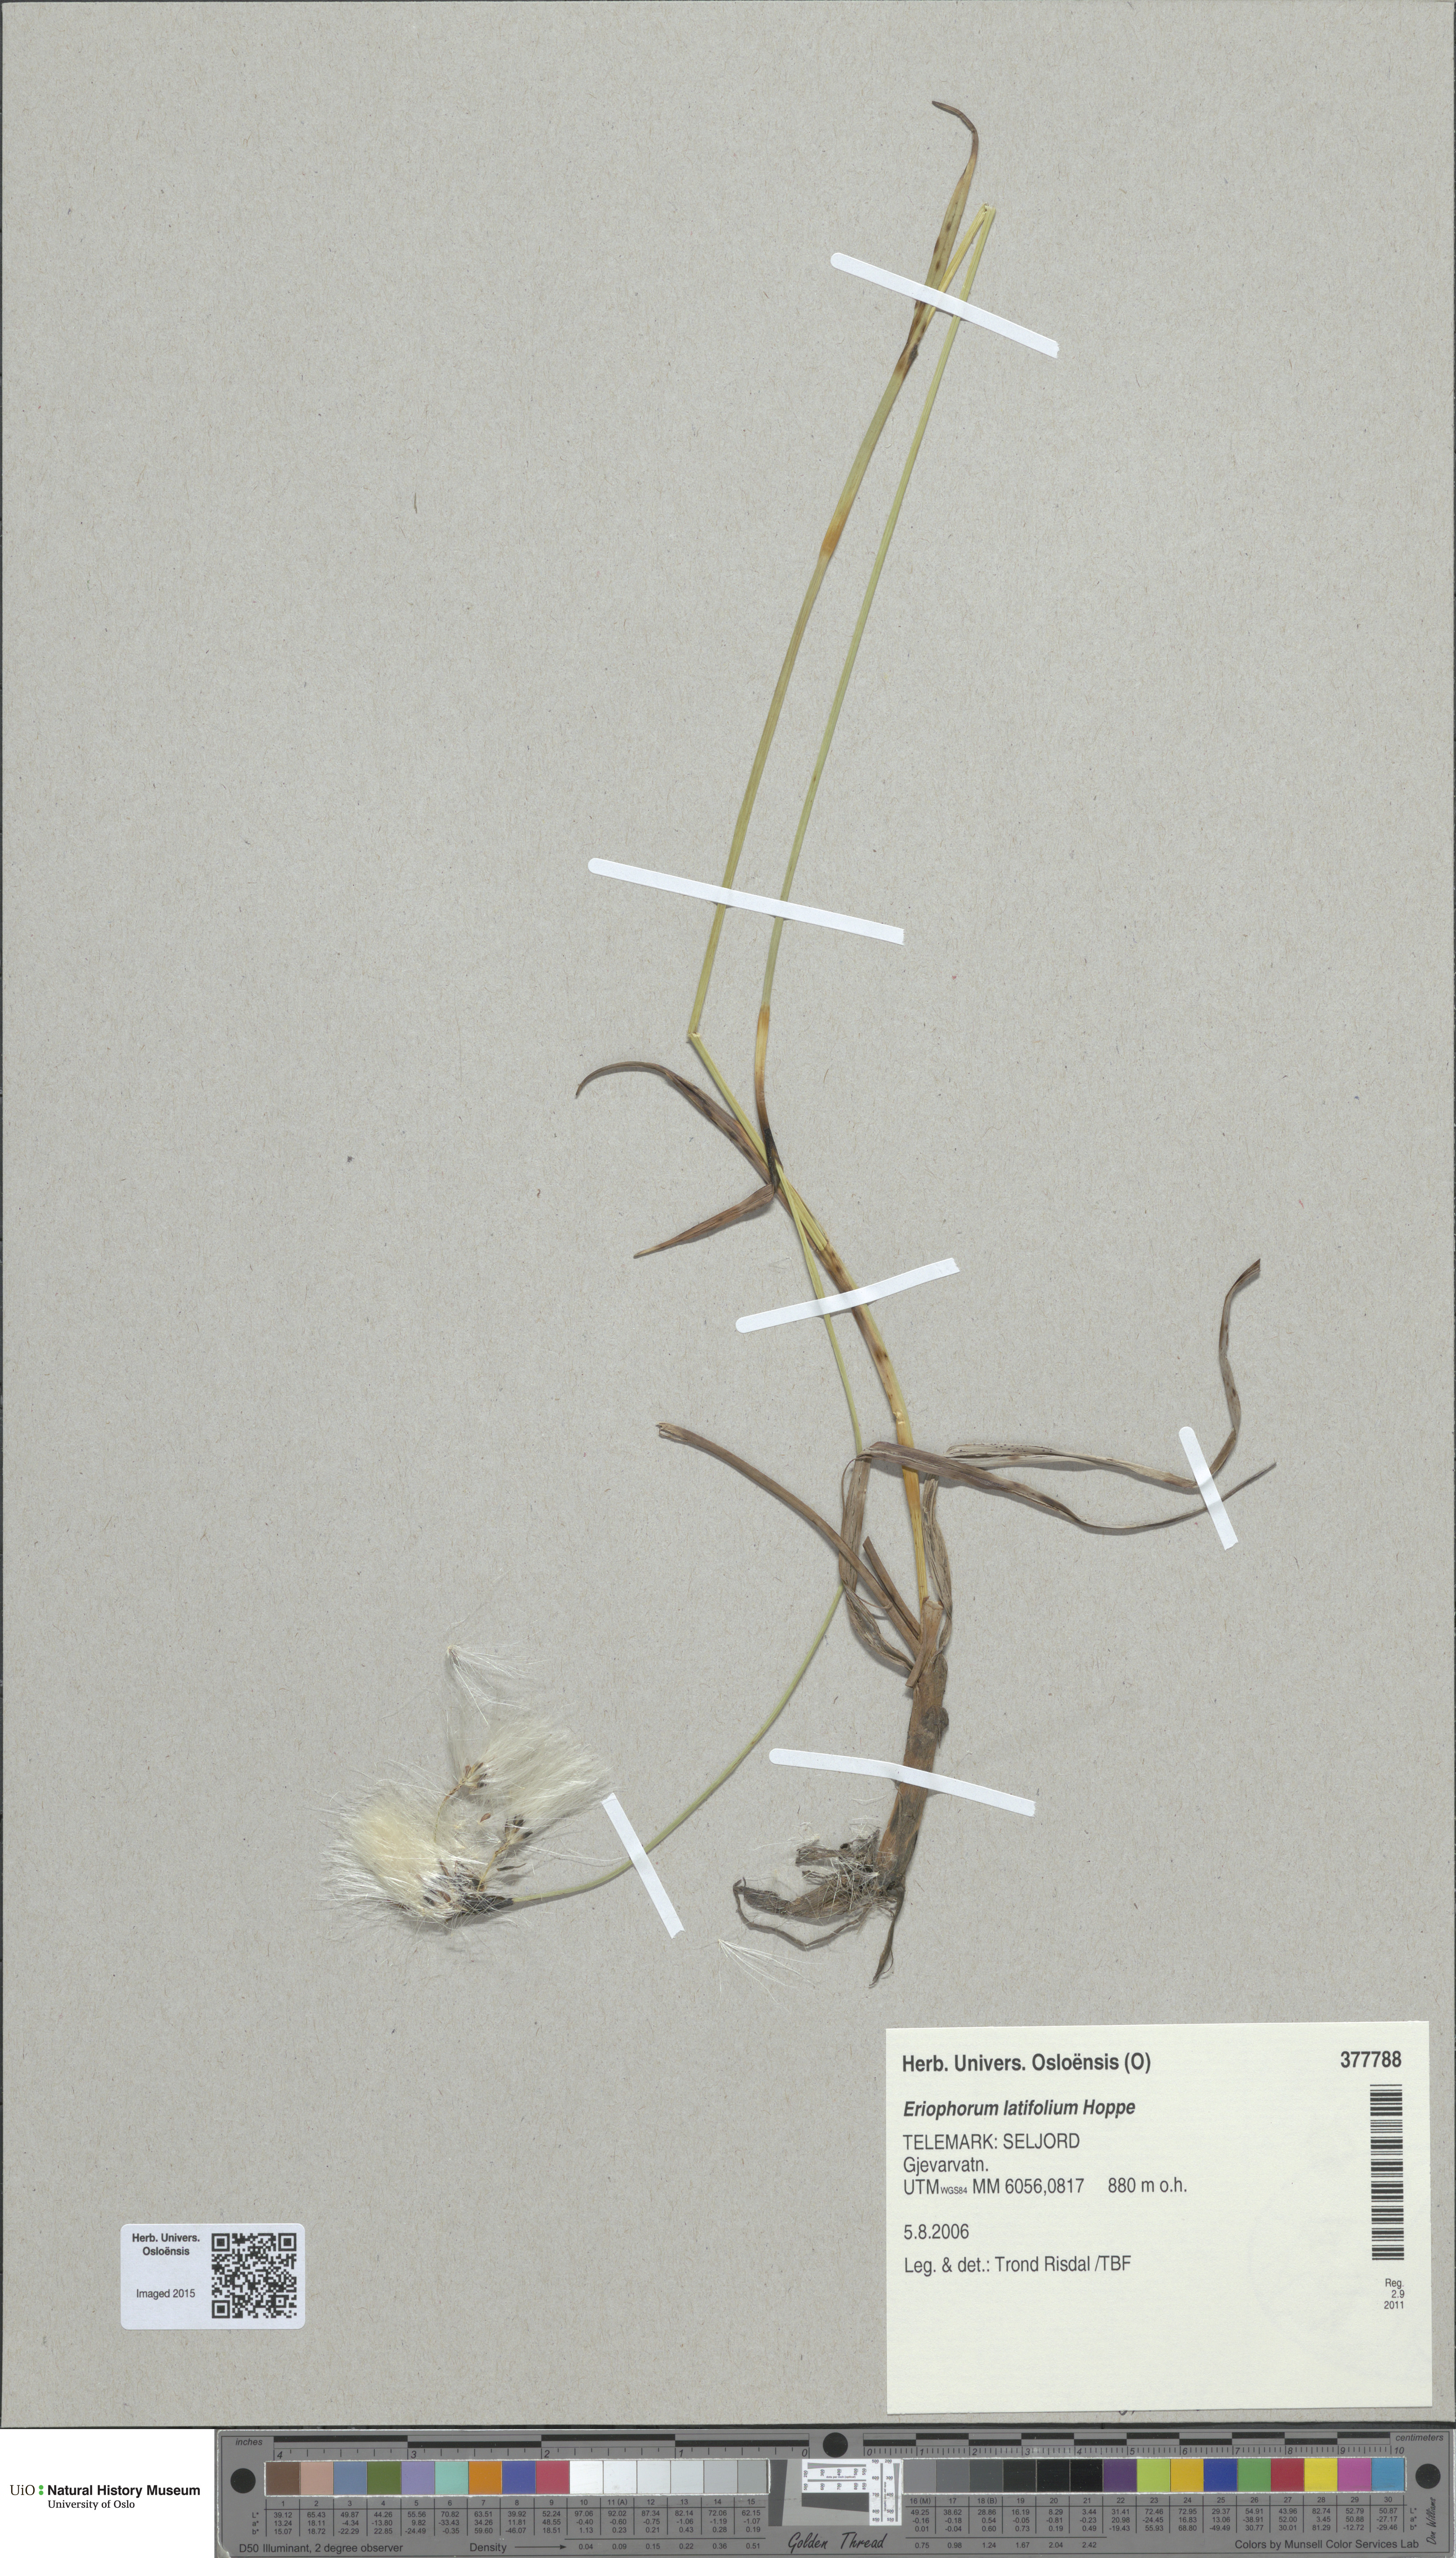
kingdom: Plantae
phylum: Tracheophyta
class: Liliopsida
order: Poales
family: Cyperaceae
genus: Eriophorum
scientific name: Eriophorum latifolium
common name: Broad-leaved cottongrass
